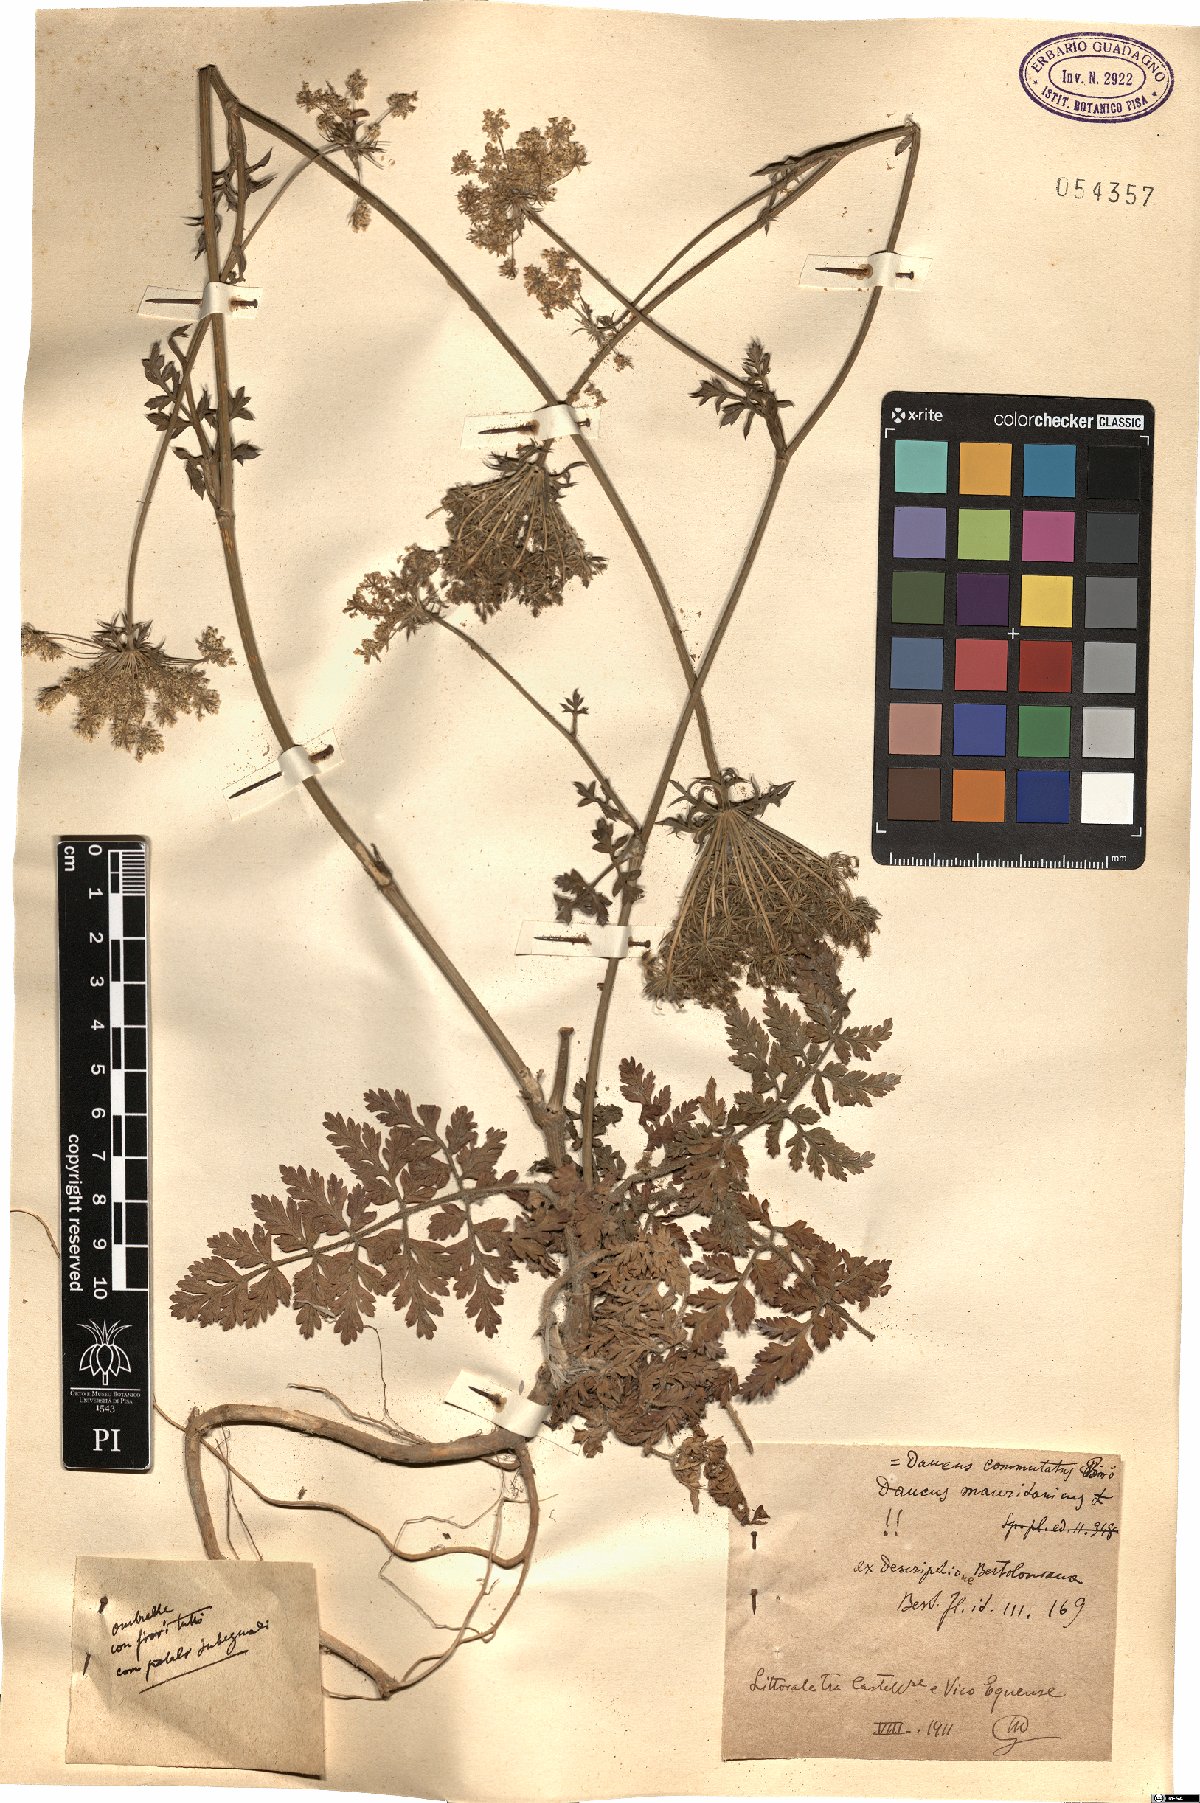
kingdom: Plantae
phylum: Tracheophyta
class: Magnoliopsida
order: Apiales
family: Apiaceae
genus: Daucus
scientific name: Daucus carota
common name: Wild carrot
